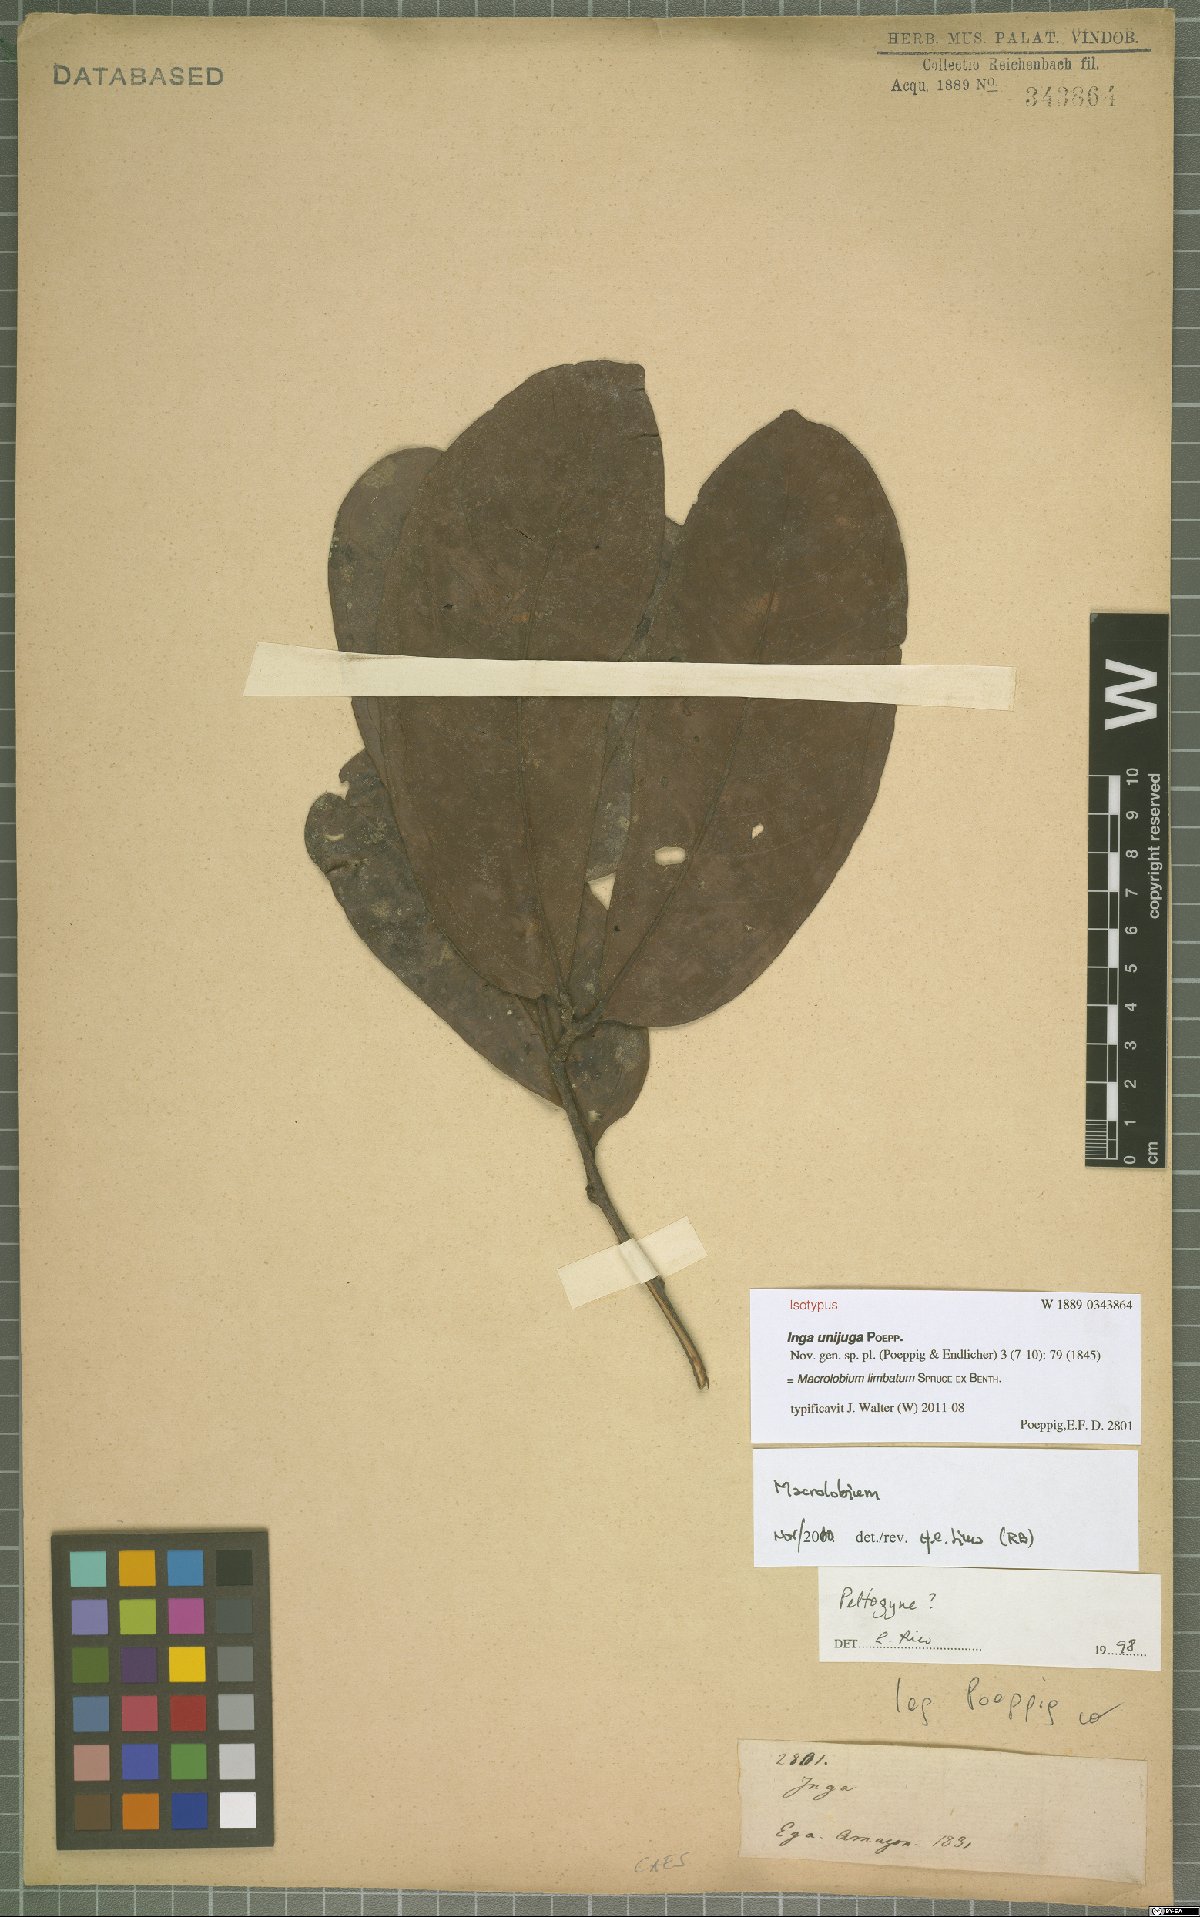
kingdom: Plantae
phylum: Tracheophyta
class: Magnoliopsida
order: Fabales
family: Fabaceae
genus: Macrolobium
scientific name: Macrolobium limbatum
